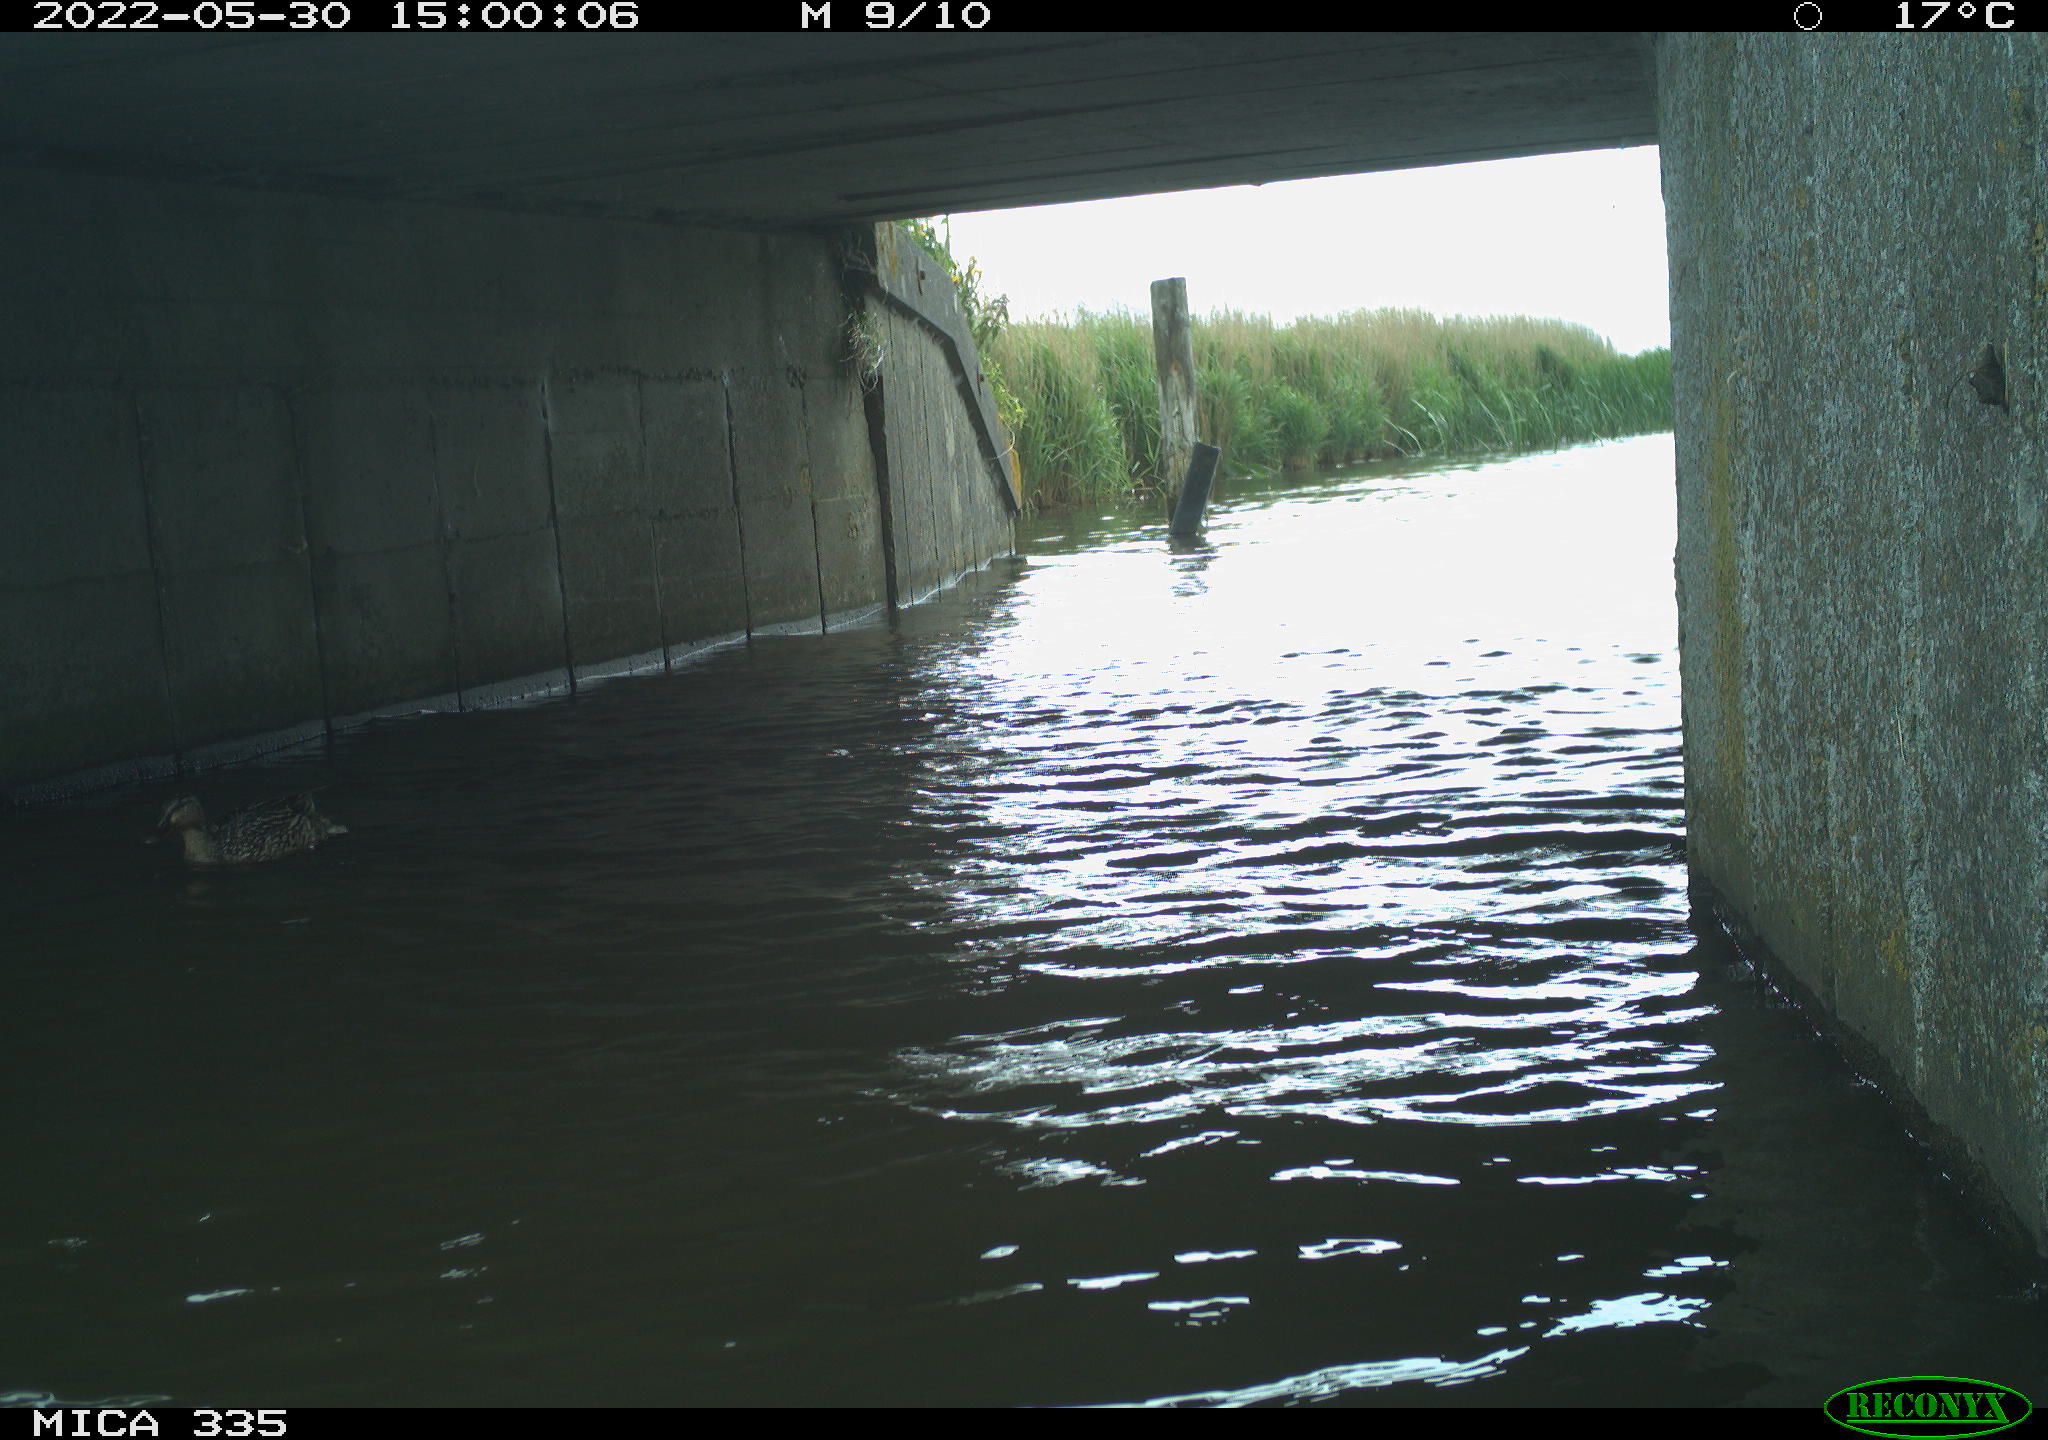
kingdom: Animalia
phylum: Chordata
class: Aves
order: Anseriformes
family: Anatidae
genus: Anas
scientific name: Anas platyrhynchos
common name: Mallard
